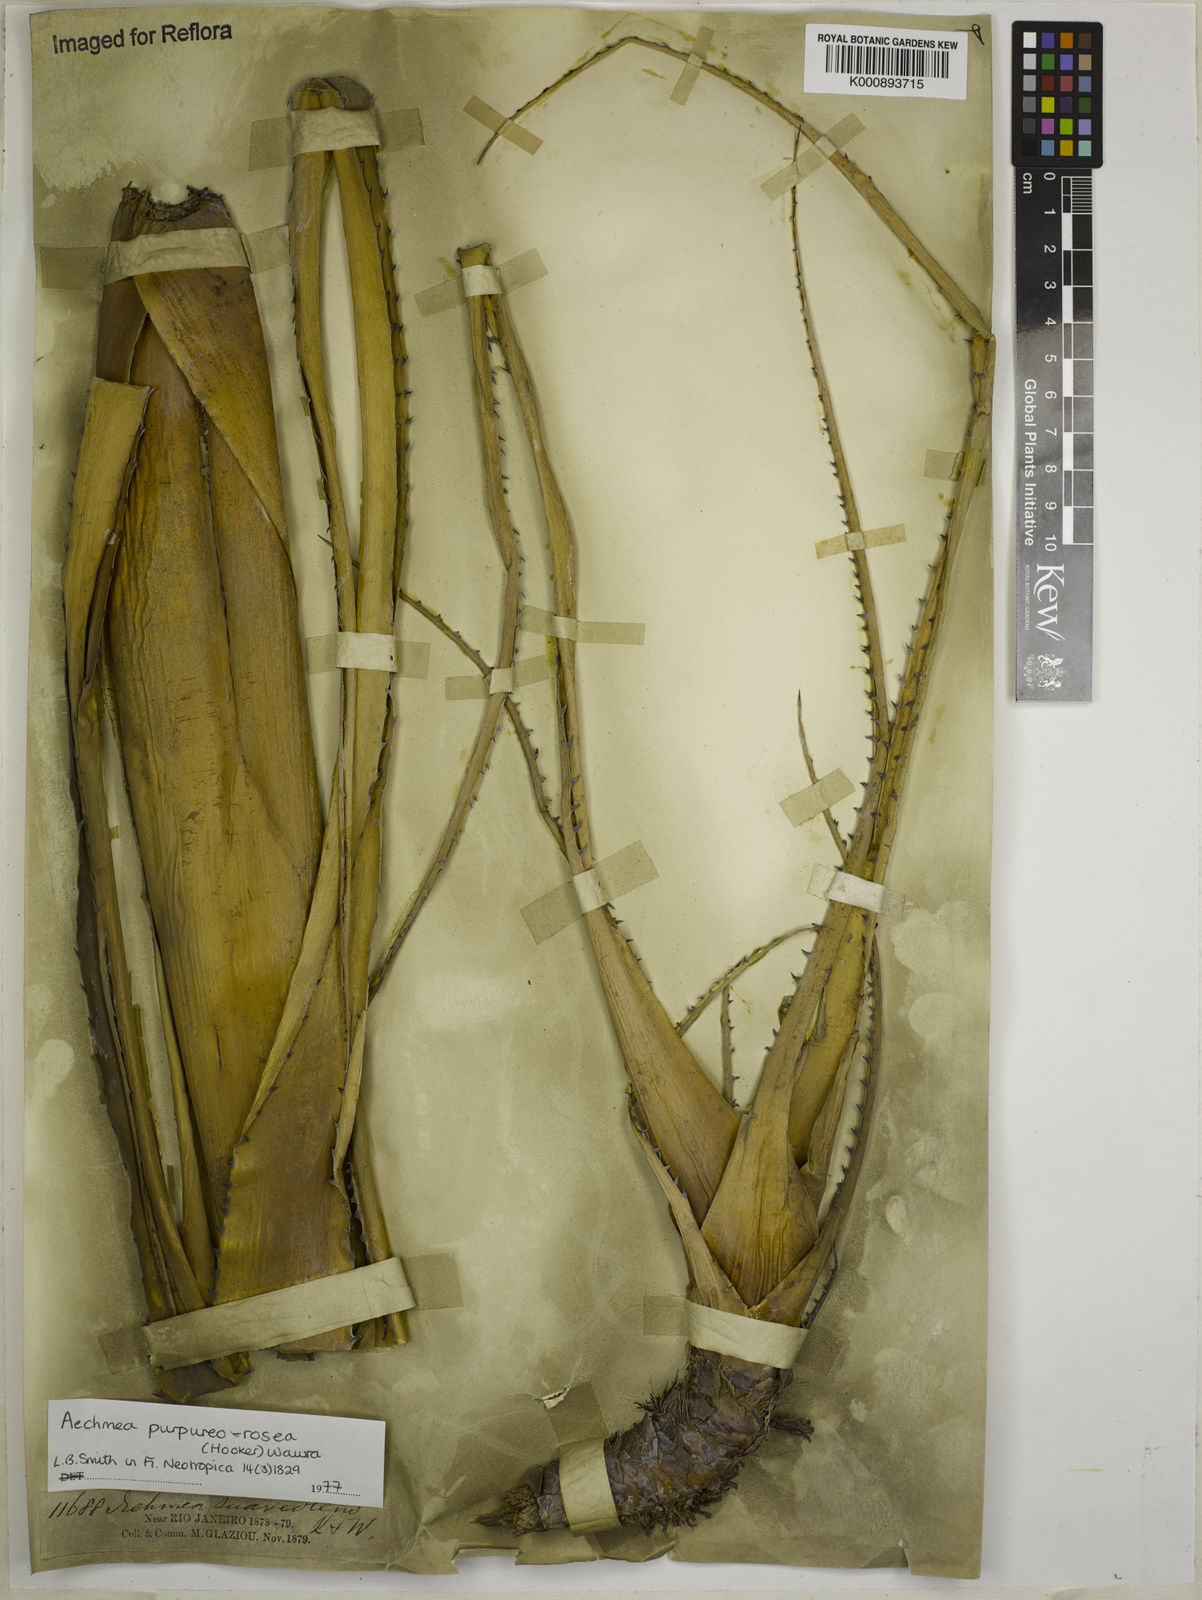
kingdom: Plantae
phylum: Tracheophyta
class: Liliopsida
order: Poales
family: Bromeliaceae
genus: Aechmea
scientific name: Aechmea
